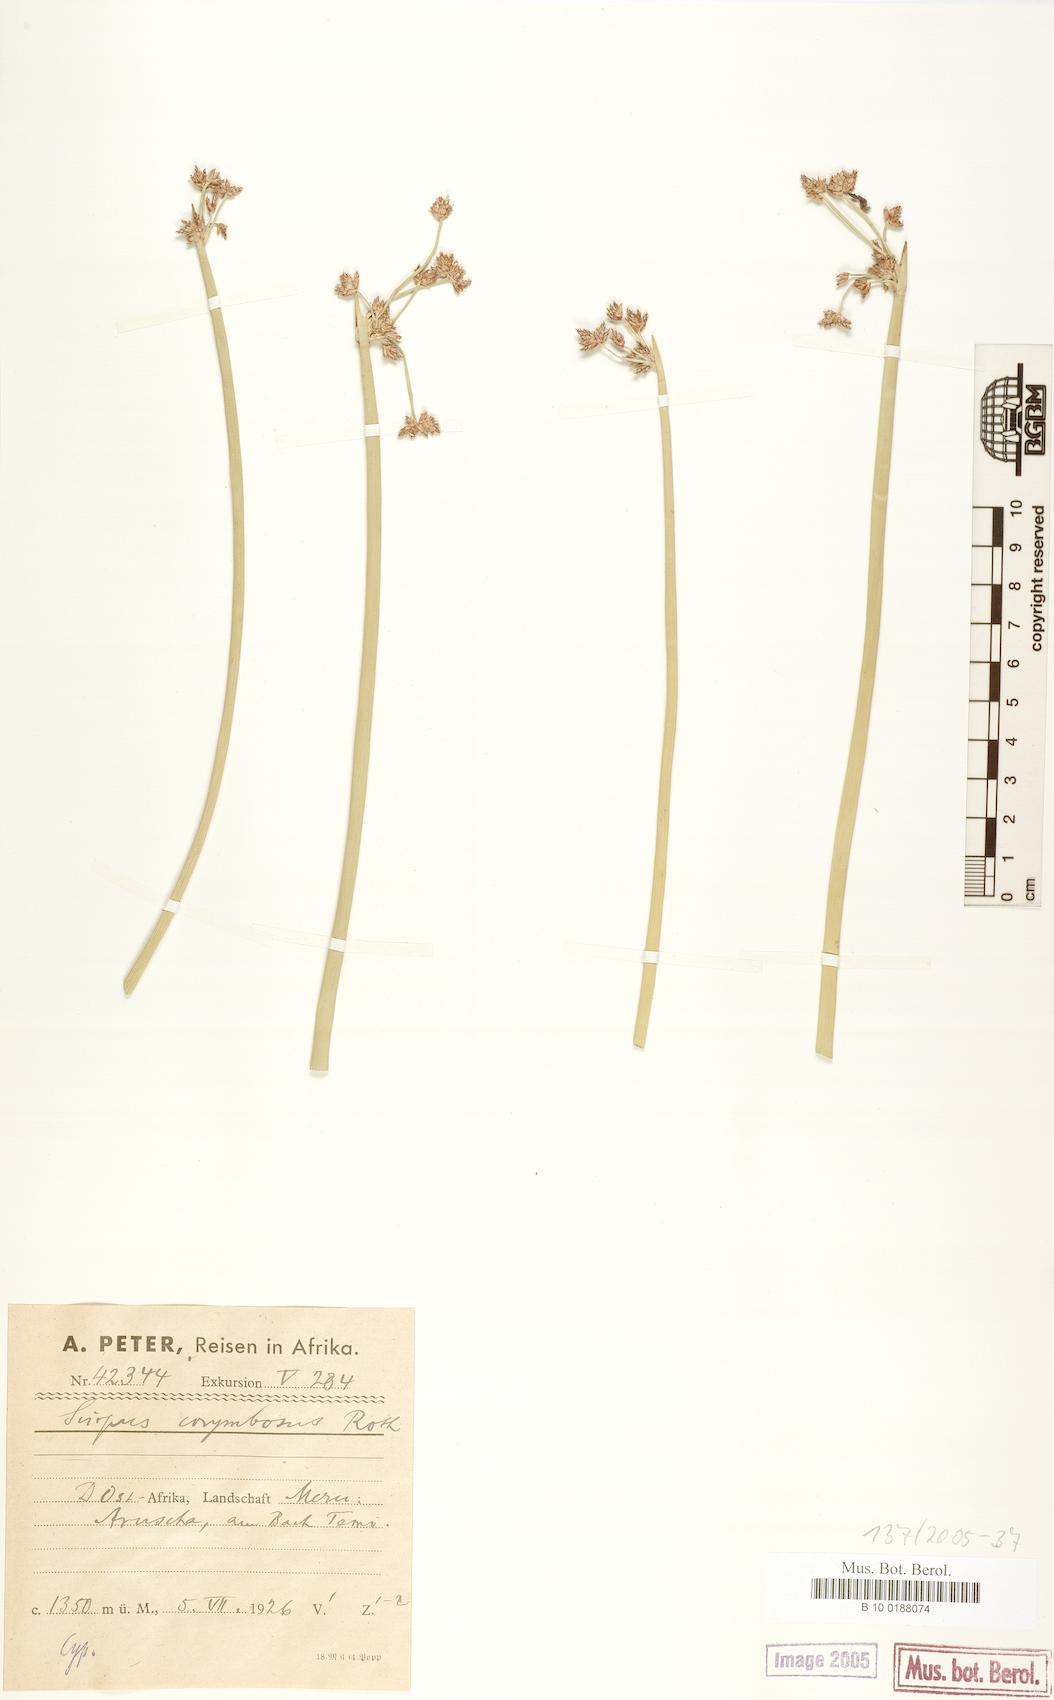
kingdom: Plantae
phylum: Tracheophyta
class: Liliopsida
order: Poales
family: Cyperaceae
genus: Schoenoplectiella
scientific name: Schoenoplectiella brachyceras
